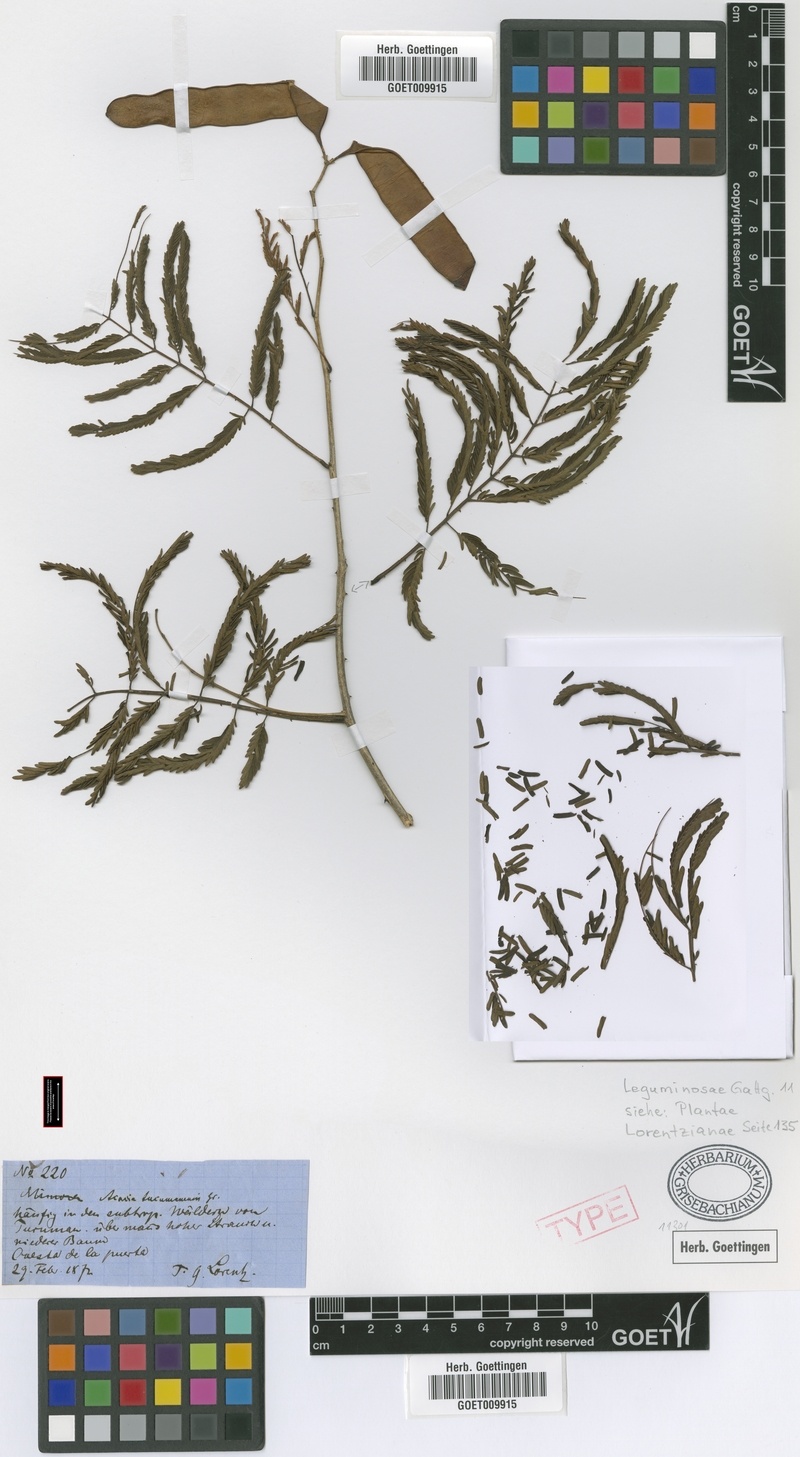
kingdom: Plantae
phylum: Tracheophyta
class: Magnoliopsida
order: Fabales
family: Fabaceae
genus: Senegalia
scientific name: Senegalia tucumanensis
